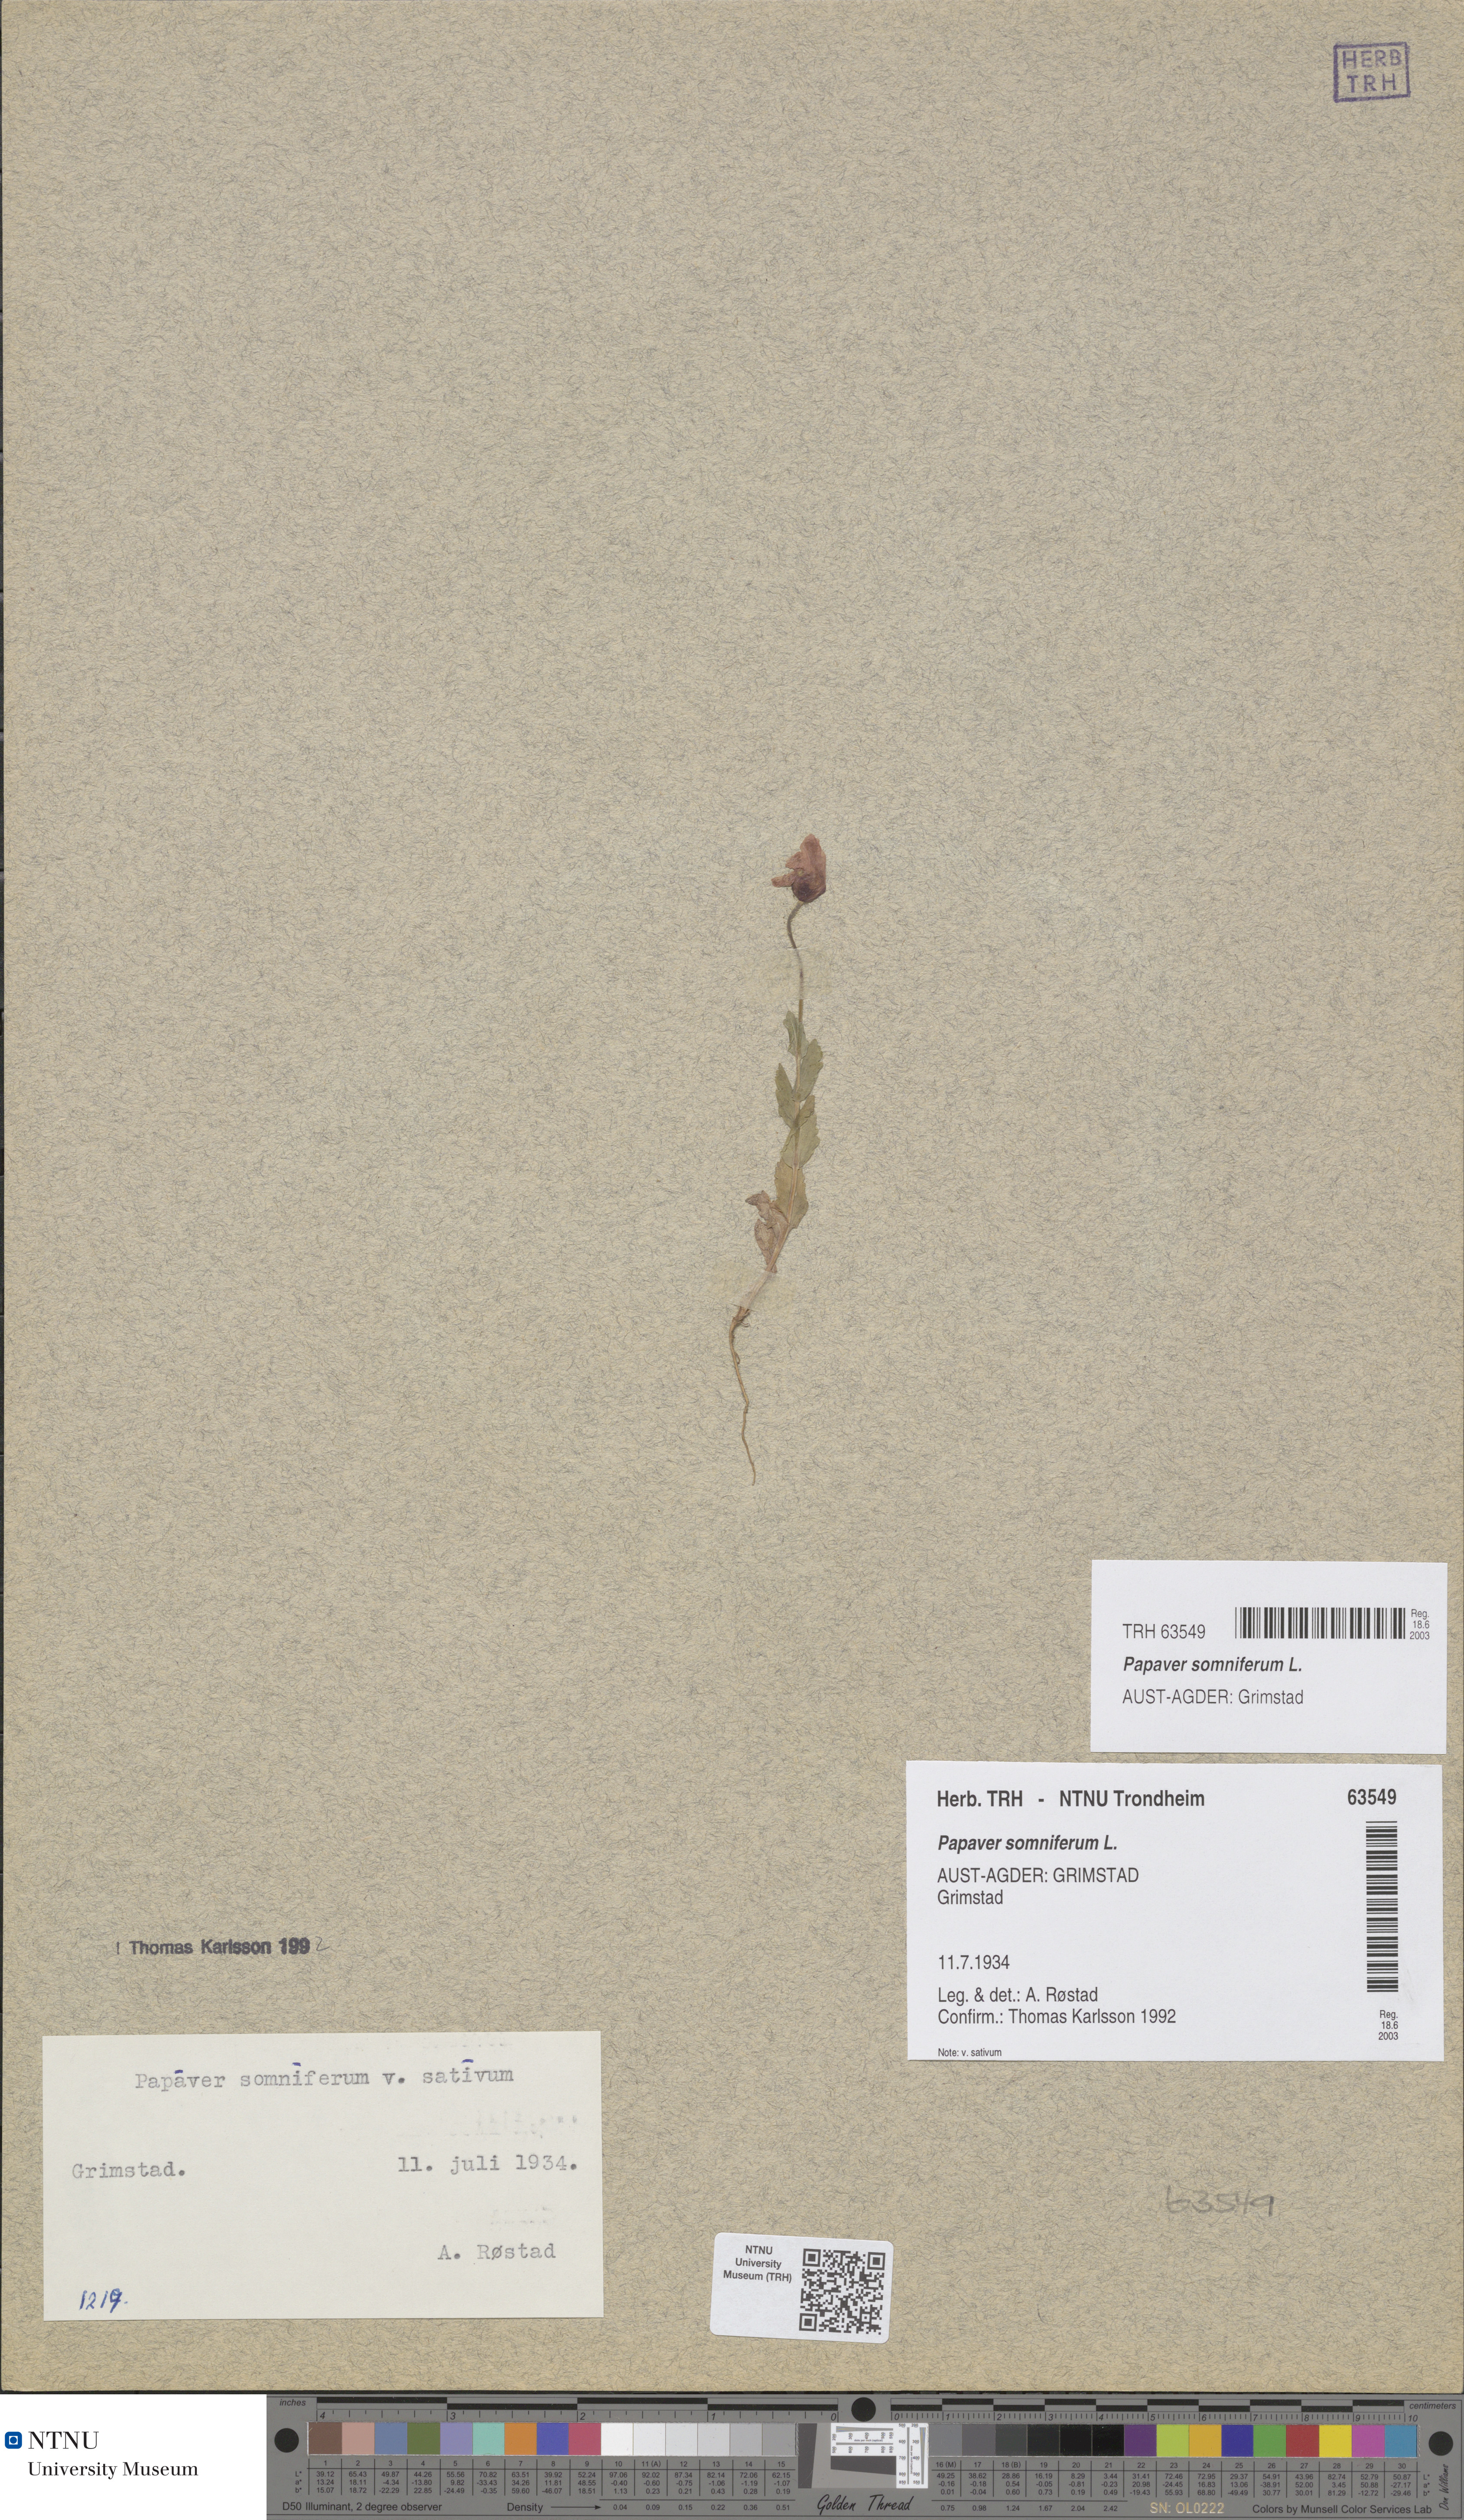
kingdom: Plantae
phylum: Tracheophyta
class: Magnoliopsida
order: Ranunculales
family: Papaveraceae
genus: Papaver
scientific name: Papaver somniferum
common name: Opium poppy
